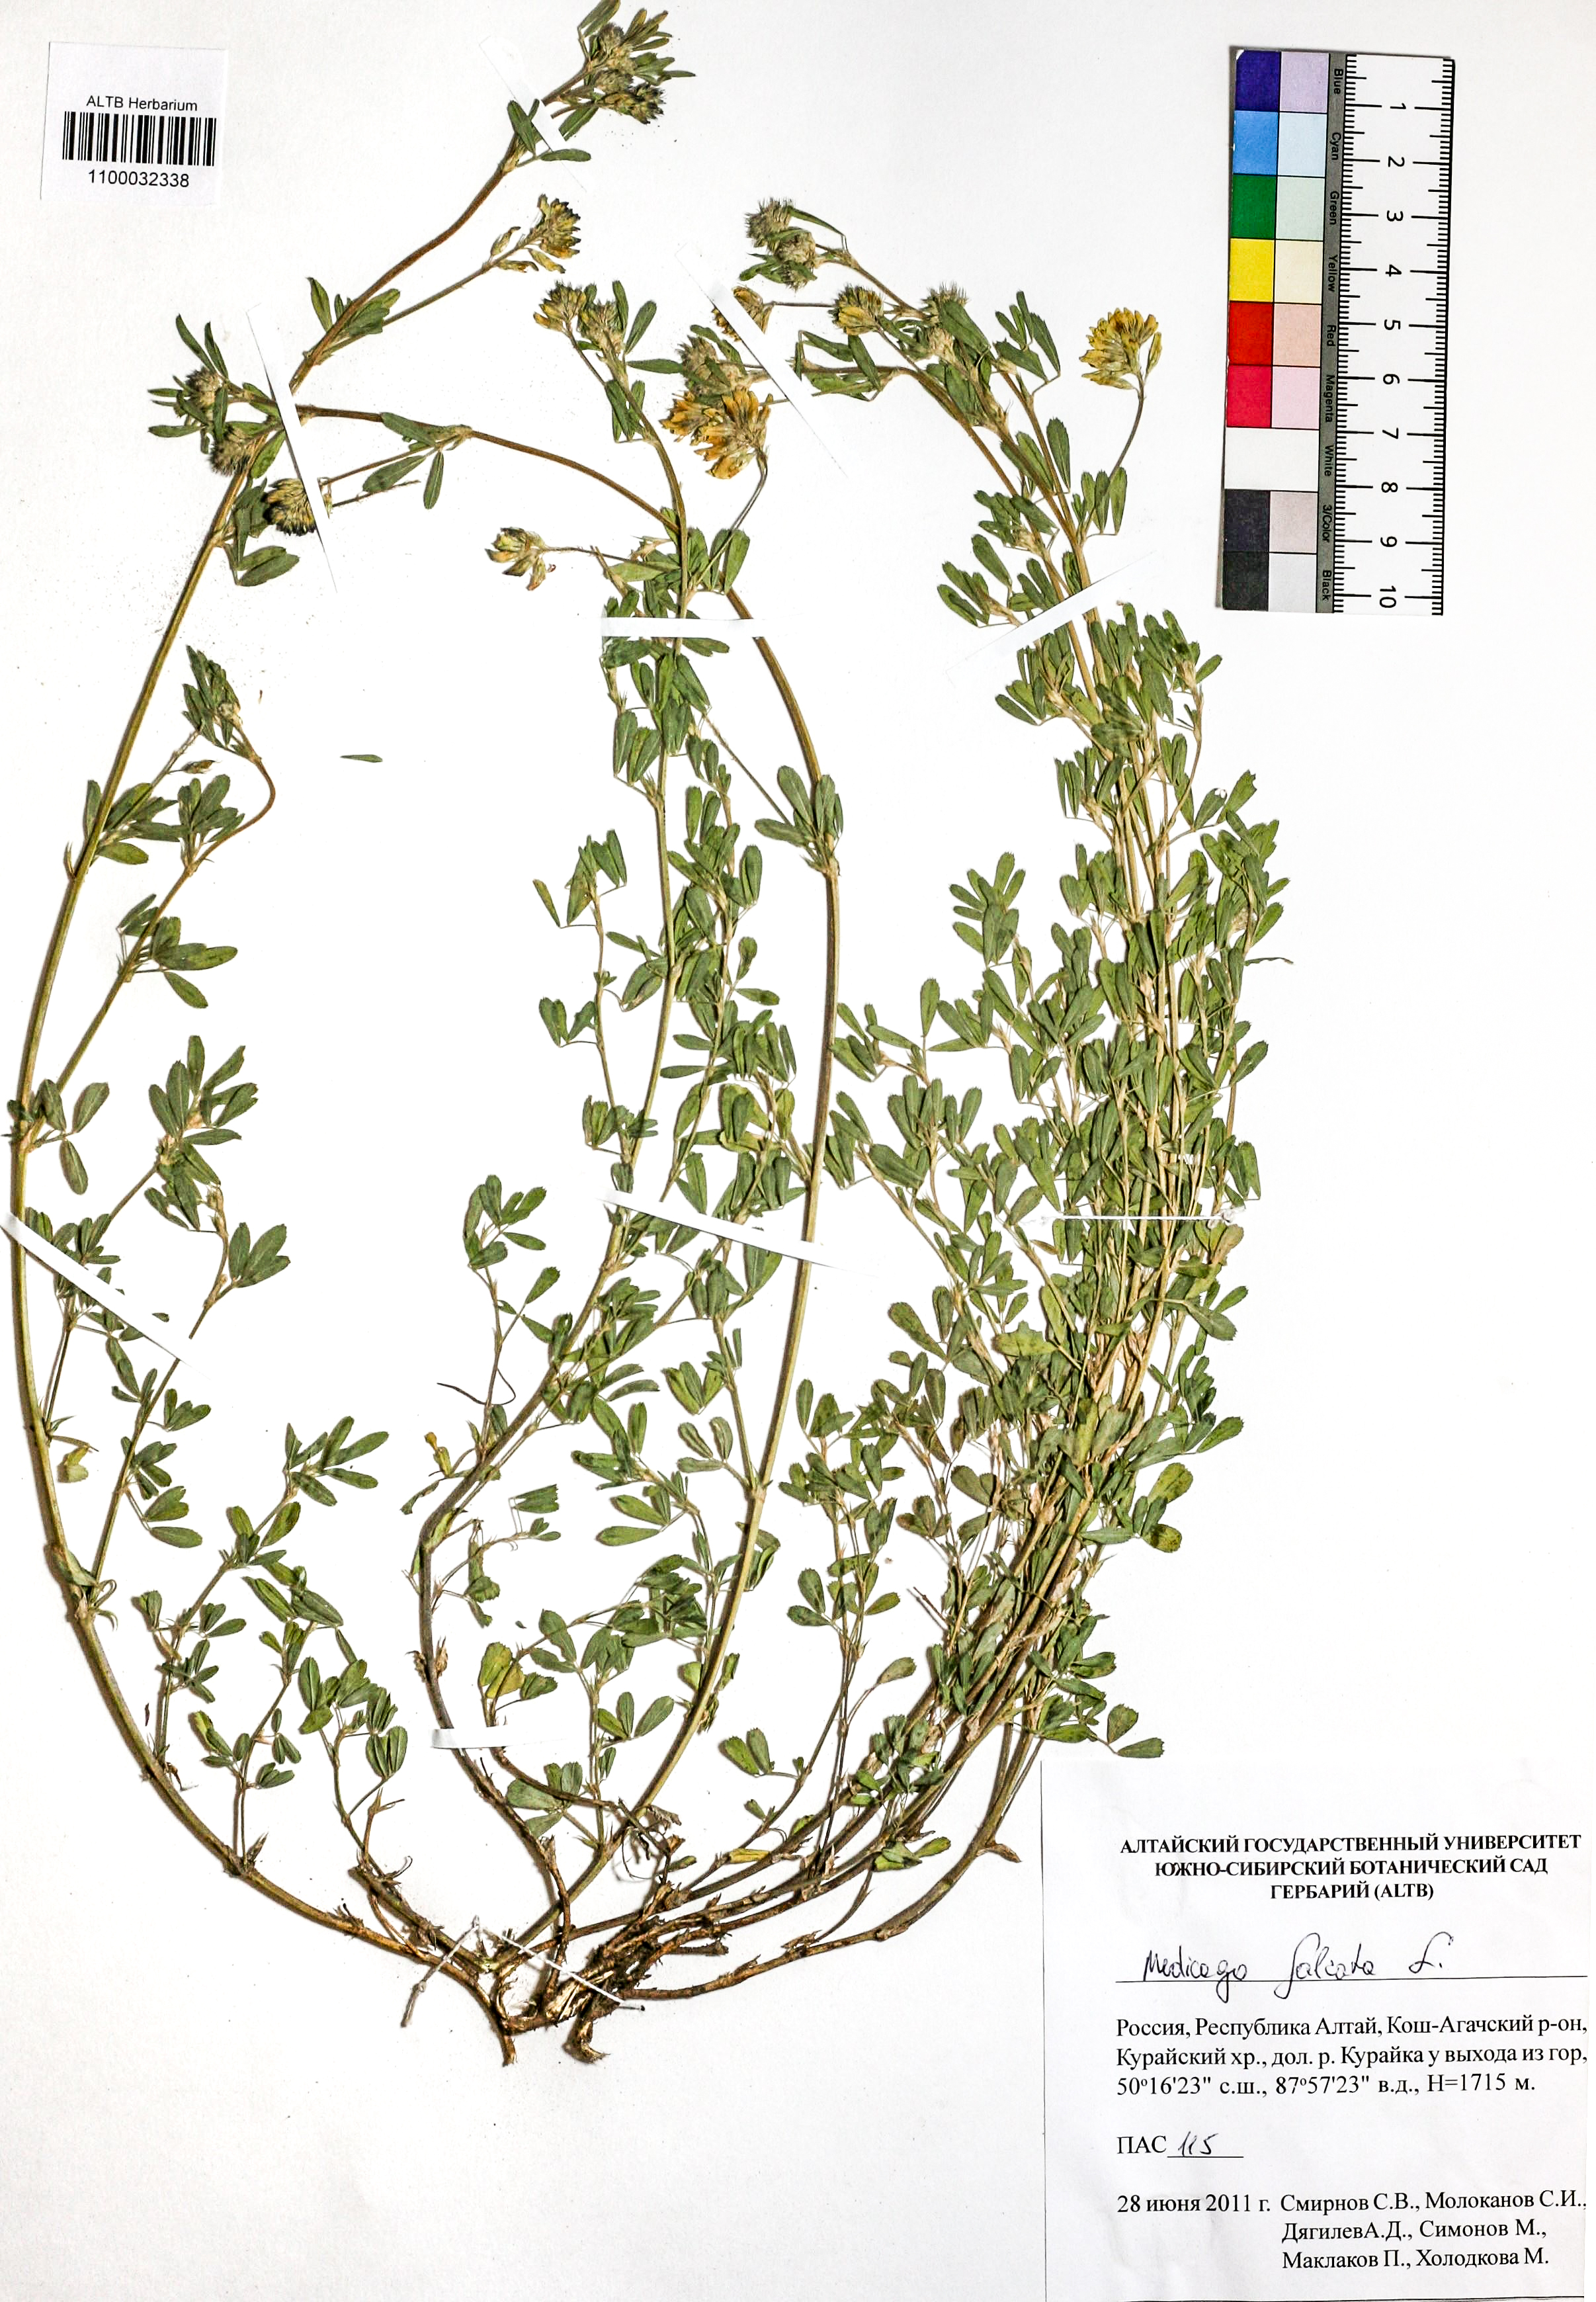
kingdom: Plantae
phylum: Tracheophyta
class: Magnoliopsida
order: Fabales
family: Fabaceae
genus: Medicago
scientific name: Medicago falcata
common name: Sickle medick
